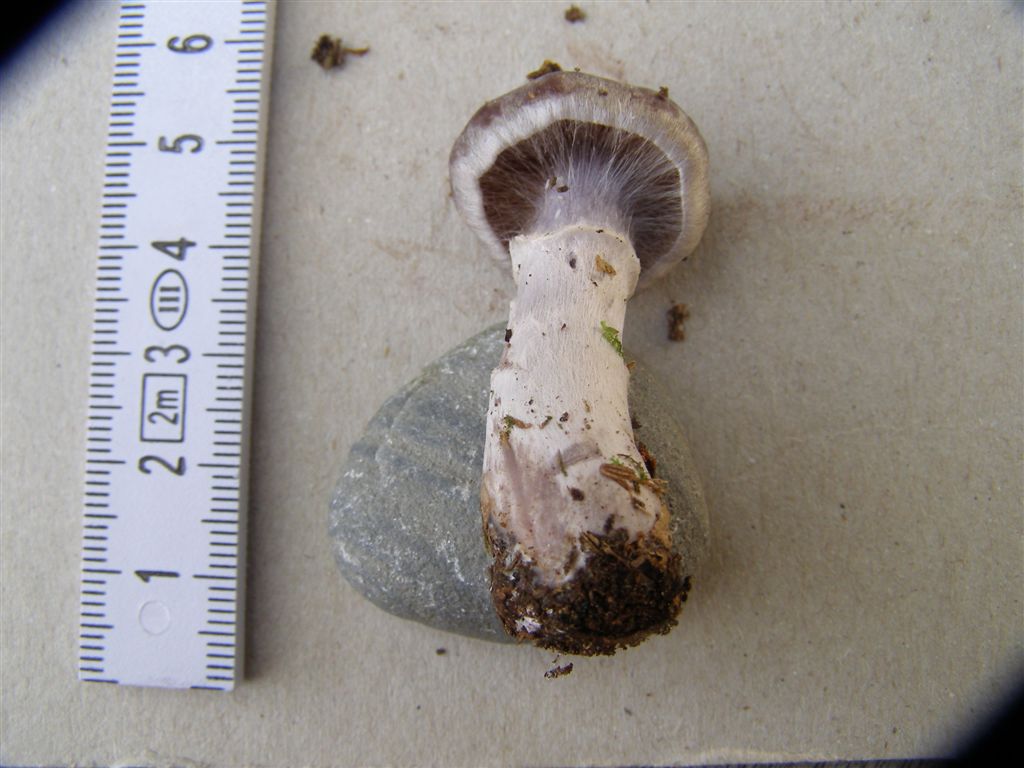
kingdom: Fungi
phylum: Basidiomycota
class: Agaricomycetes
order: Agaricales
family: Cortinariaceae
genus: Cortinarius
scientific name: Cortinarius kauffmanianus
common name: plantage-slørhat
